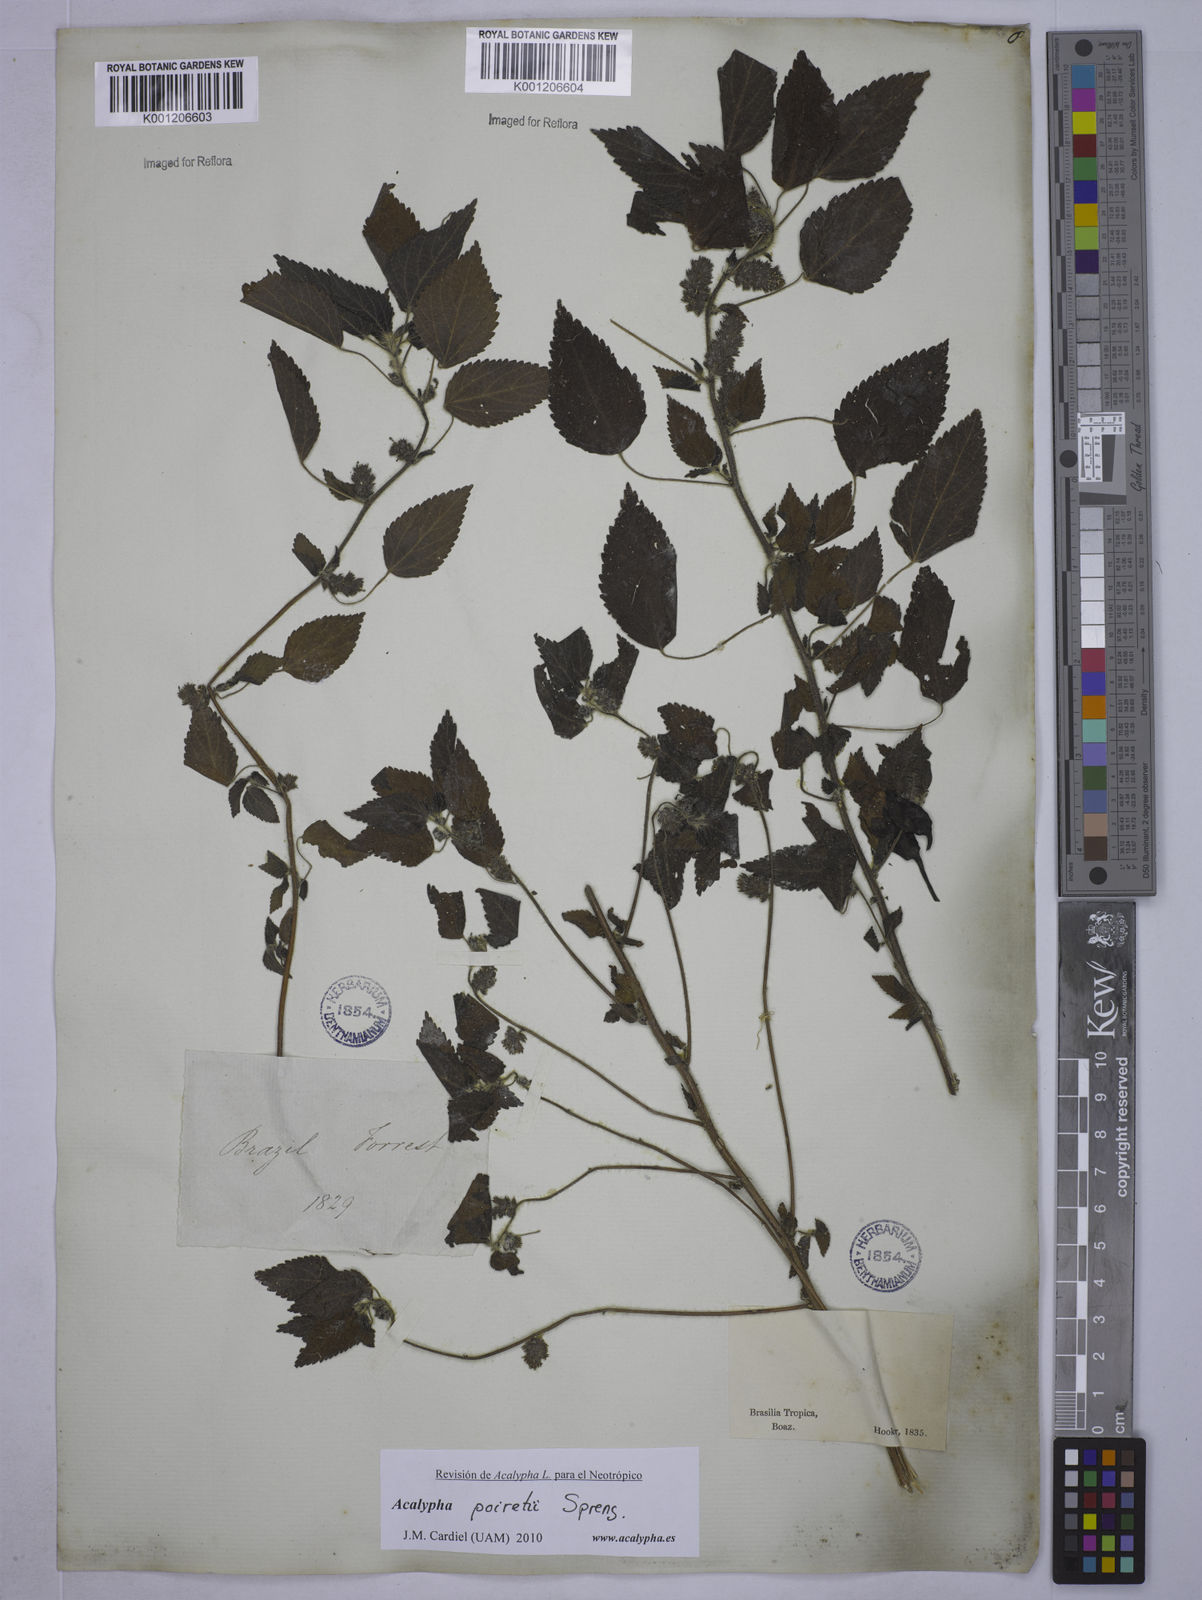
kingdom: Plantae
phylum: Tracheophyta
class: Magnoliopsida
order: Malpighiales
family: Euphorbiaceae
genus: Acalypha
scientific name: Acalypha poiretii
